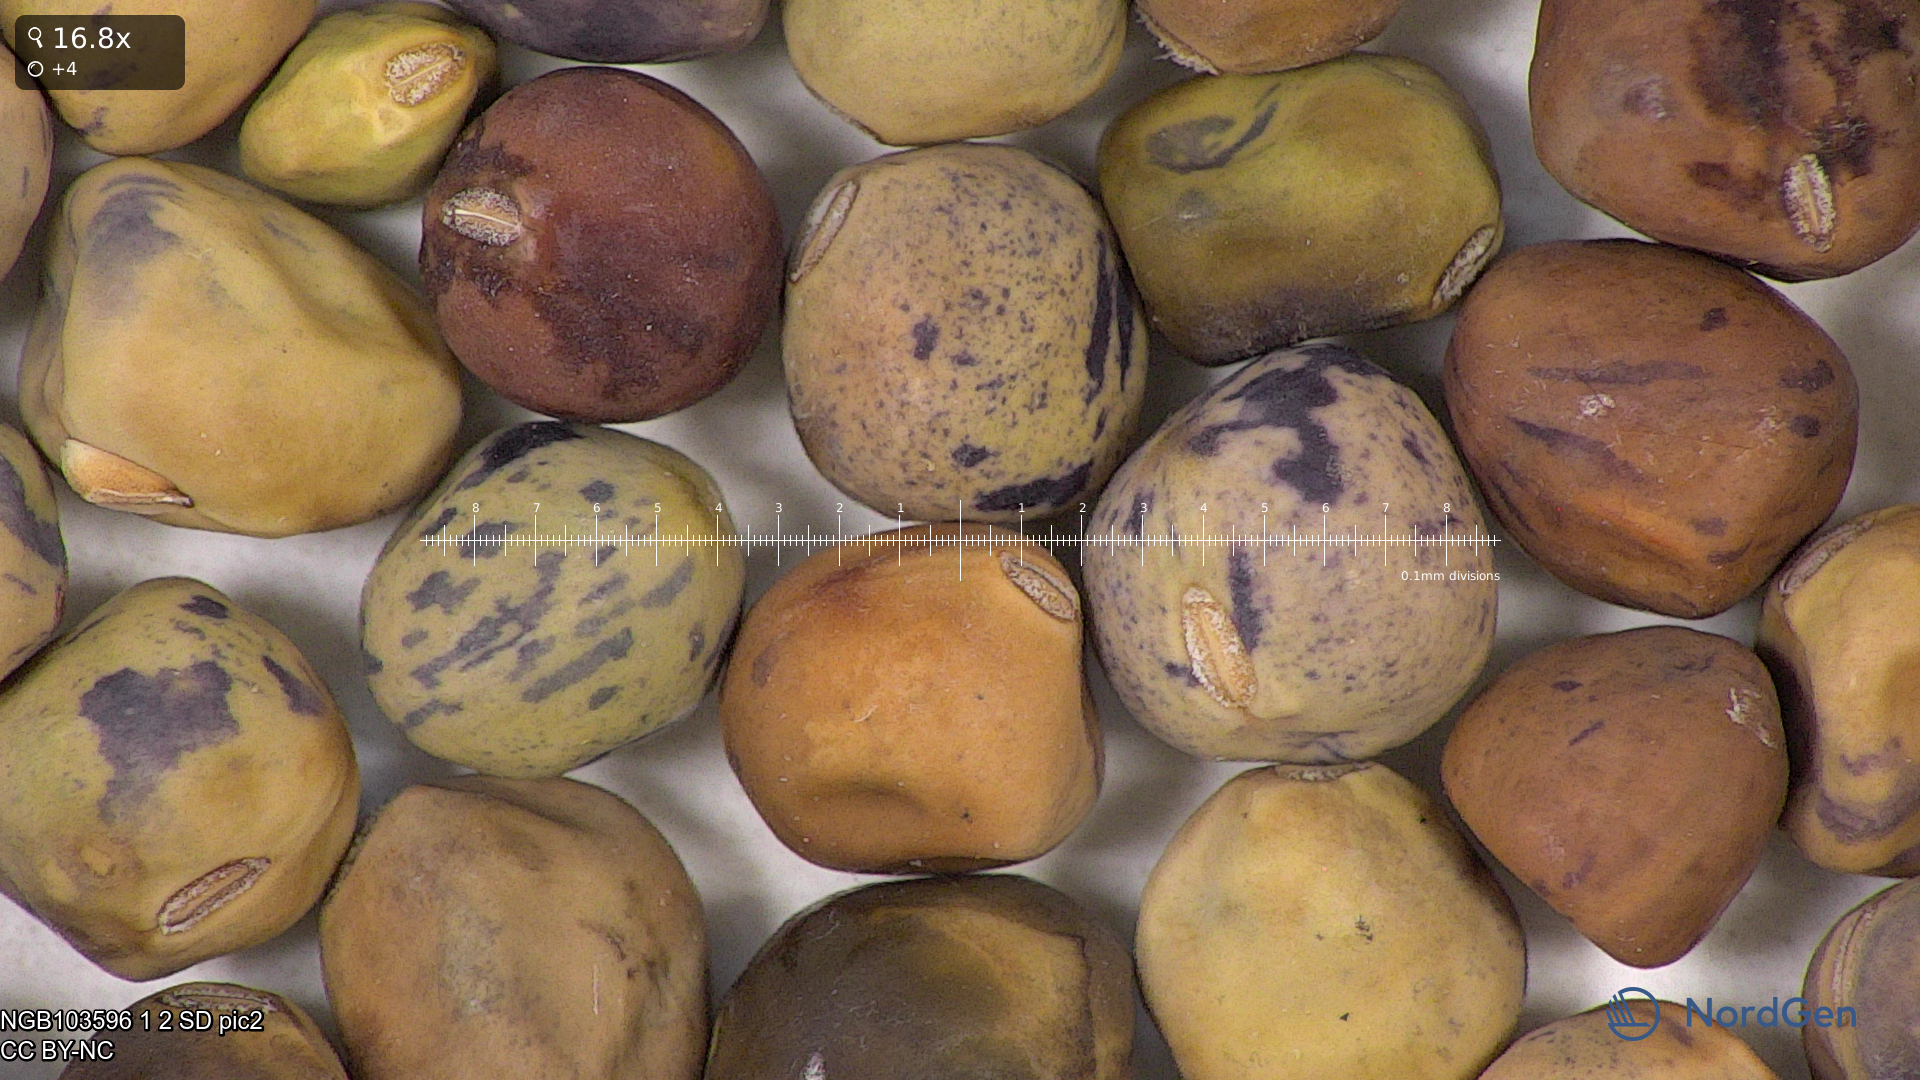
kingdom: Plantae
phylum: Tracheophyta
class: Magnoliopsida
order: Fabales
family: Fabaceae
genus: Lathyrus
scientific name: Lathyrus oleraceus
